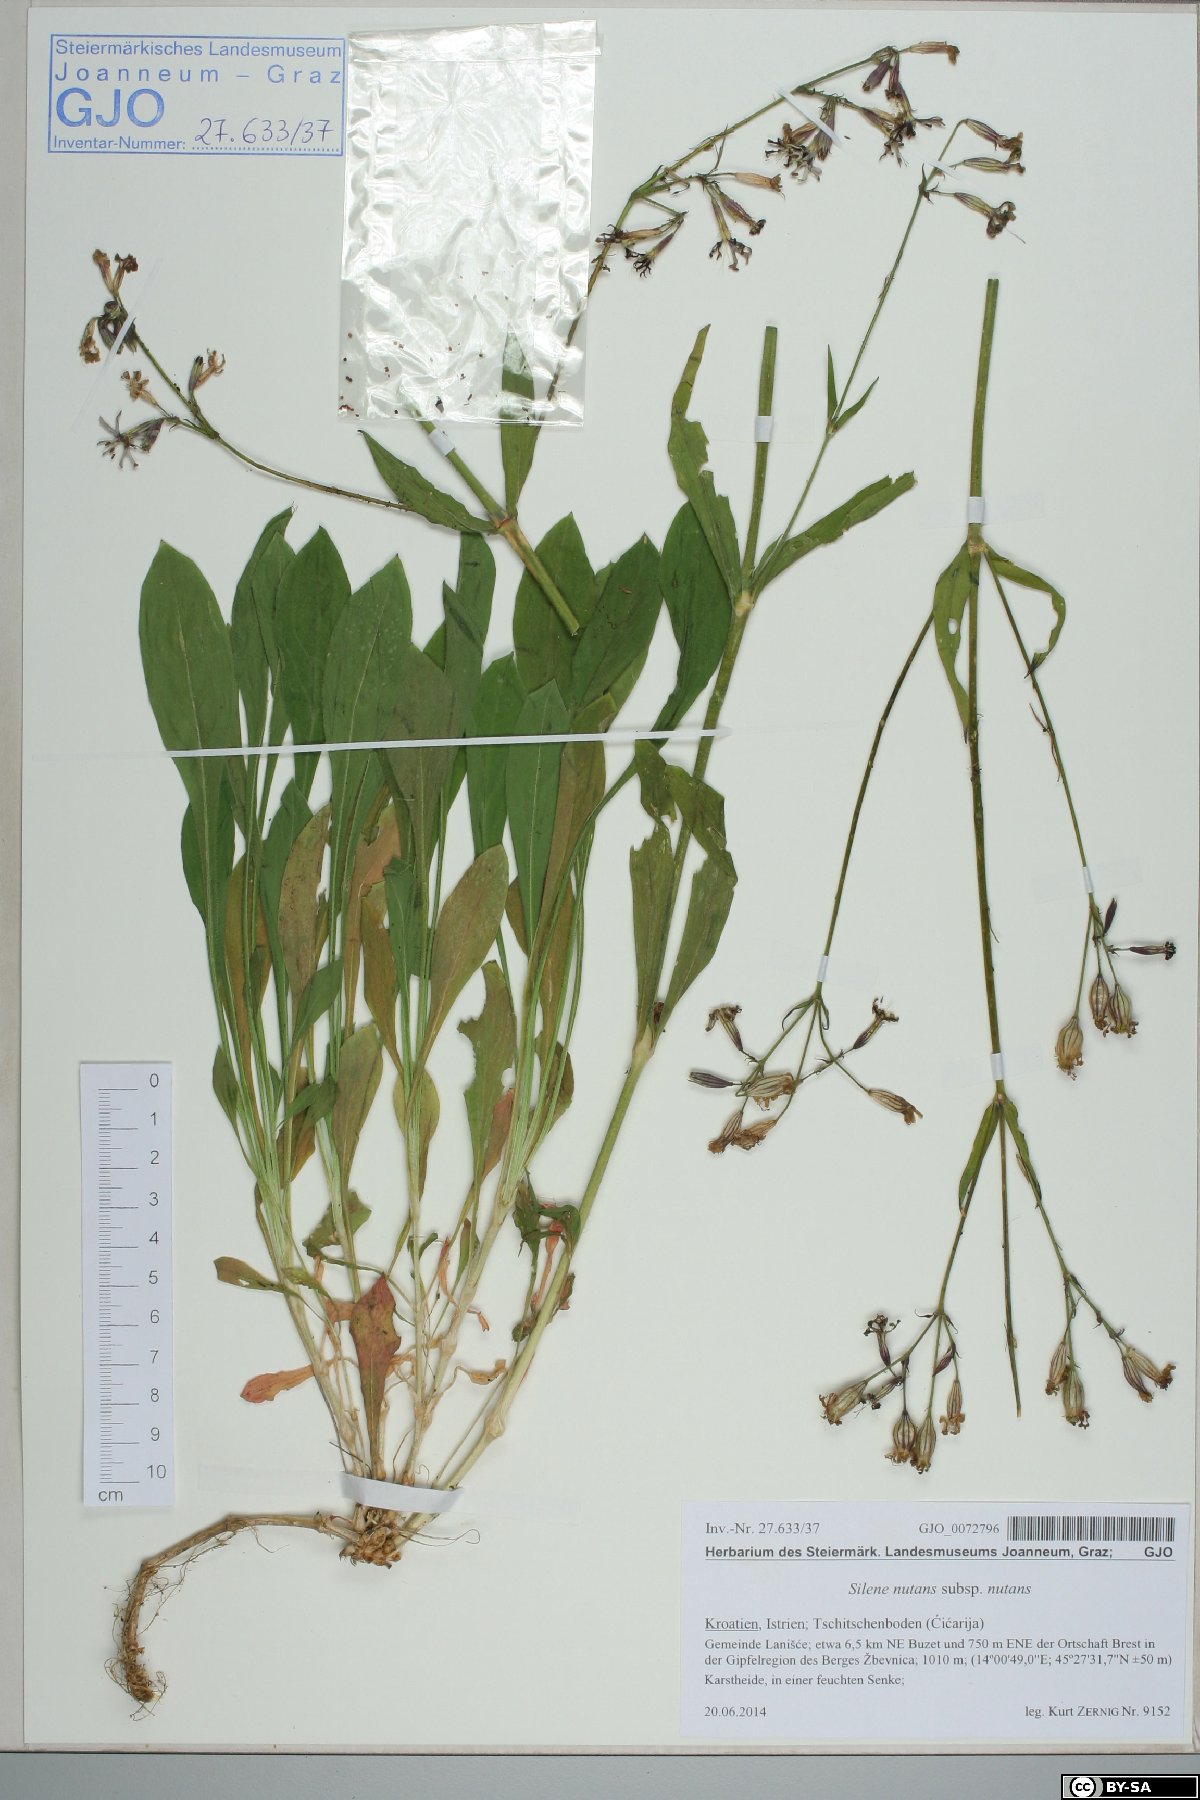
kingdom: Plantae
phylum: Tracheophyta
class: Magnoliopsida
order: Caryophyllales
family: Caryophyllaceae
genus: Silene
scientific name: Silene nutans
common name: Nottingham catchfly
